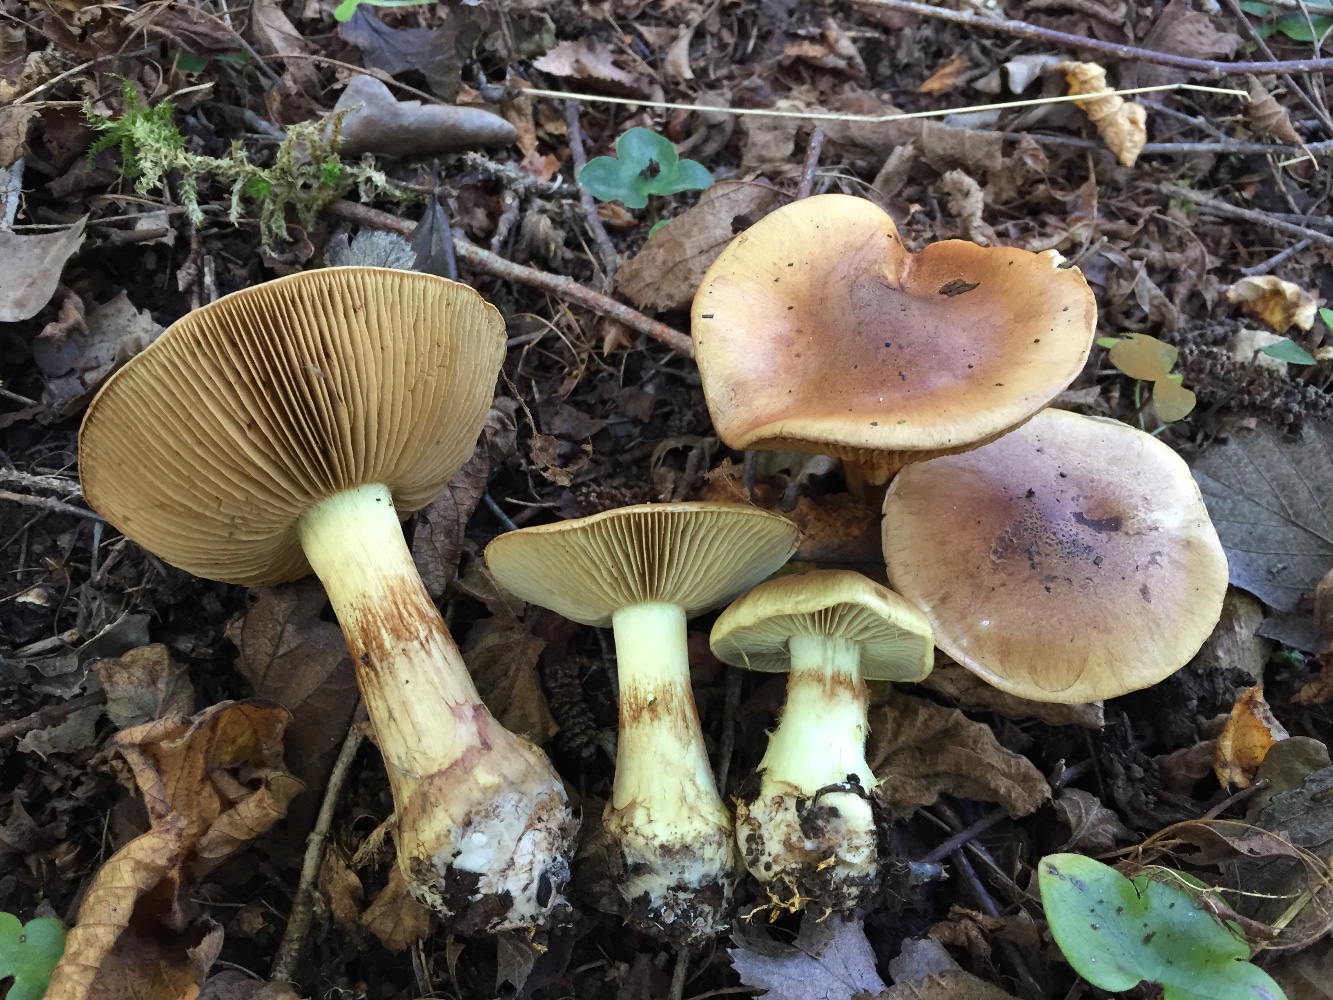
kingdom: Fungi
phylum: Basidiomycota
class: Agaricomycetes
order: Agaricales
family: Cortinariaceae
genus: Phlegmacium
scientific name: Phlegmacium stjernegaardii
